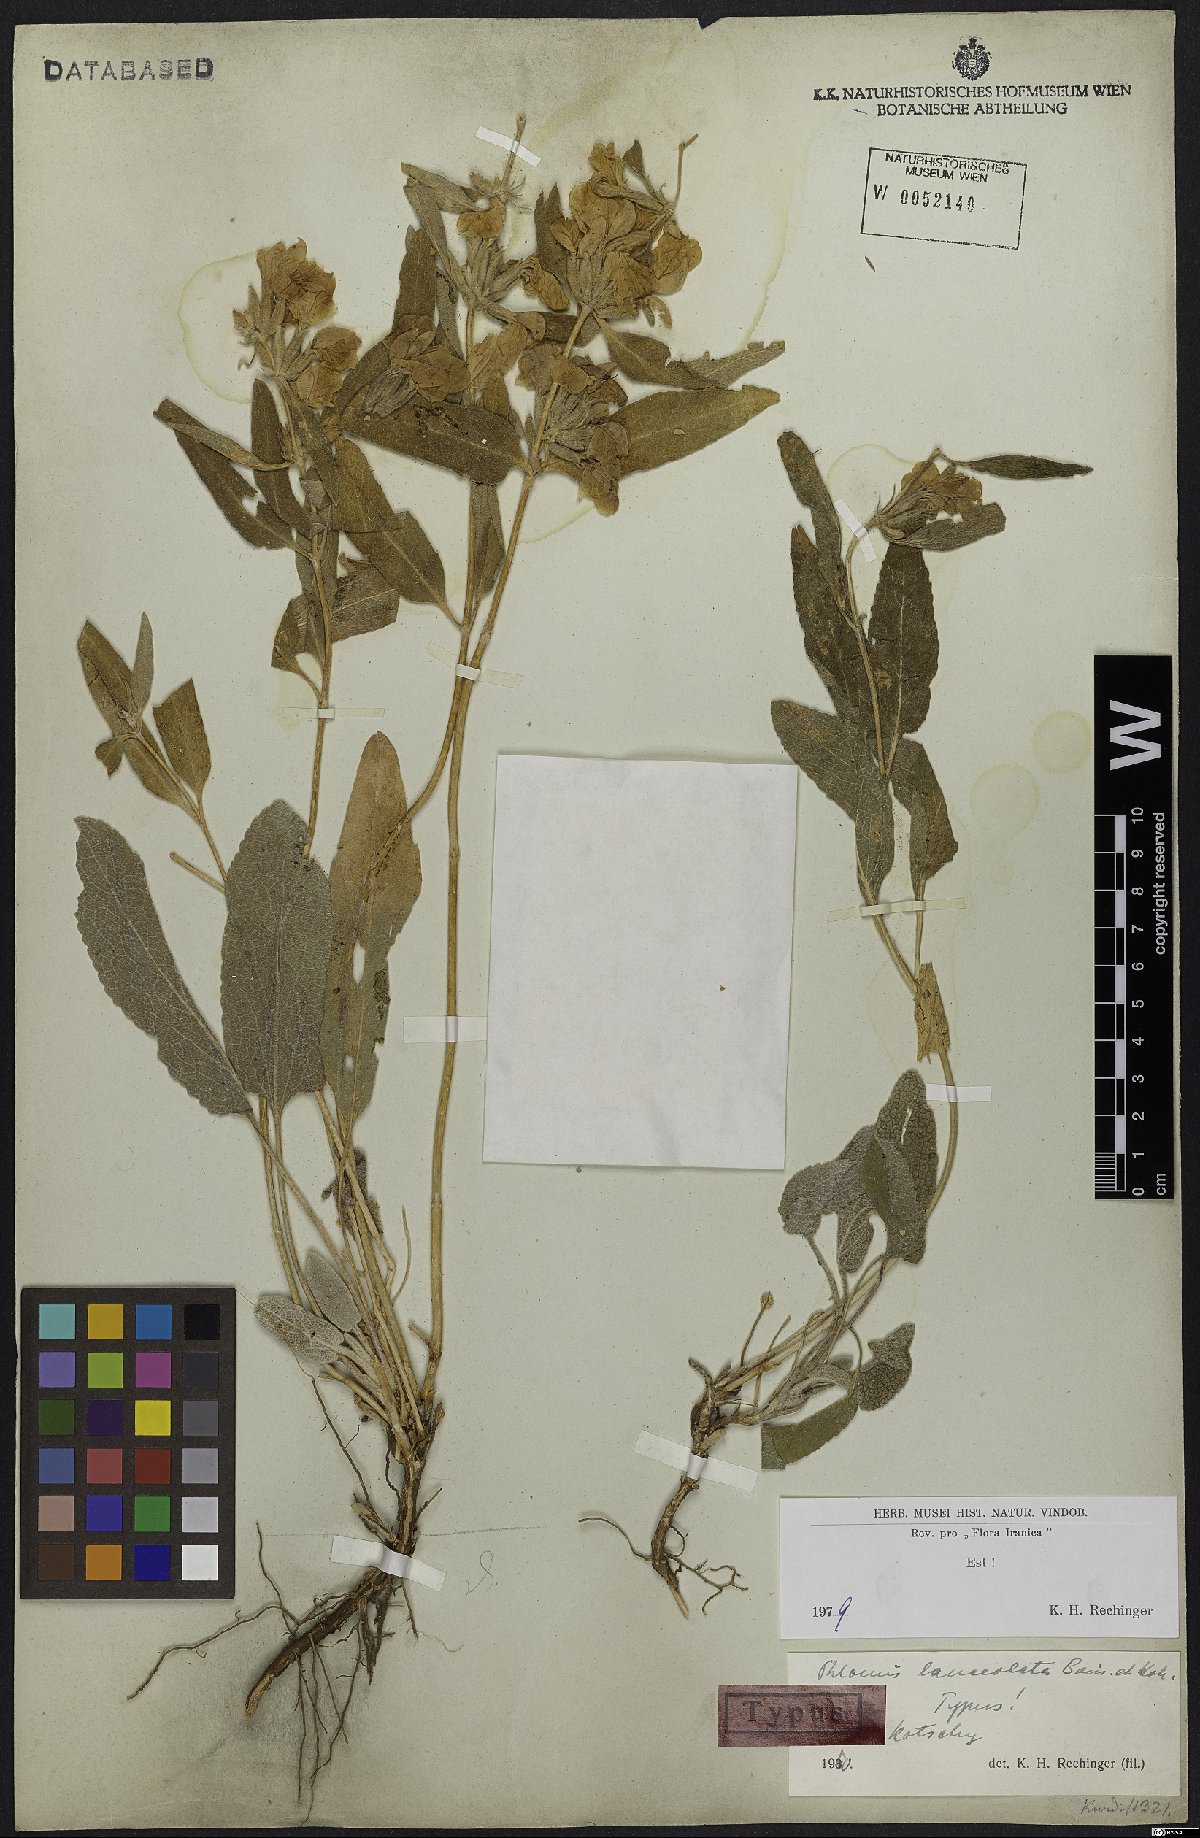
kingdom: Plantae
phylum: Tracheophyta
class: Magnoliopsida
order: Lamiales
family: Lamiaceae
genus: Phlomis
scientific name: Phlomis lanceolata
